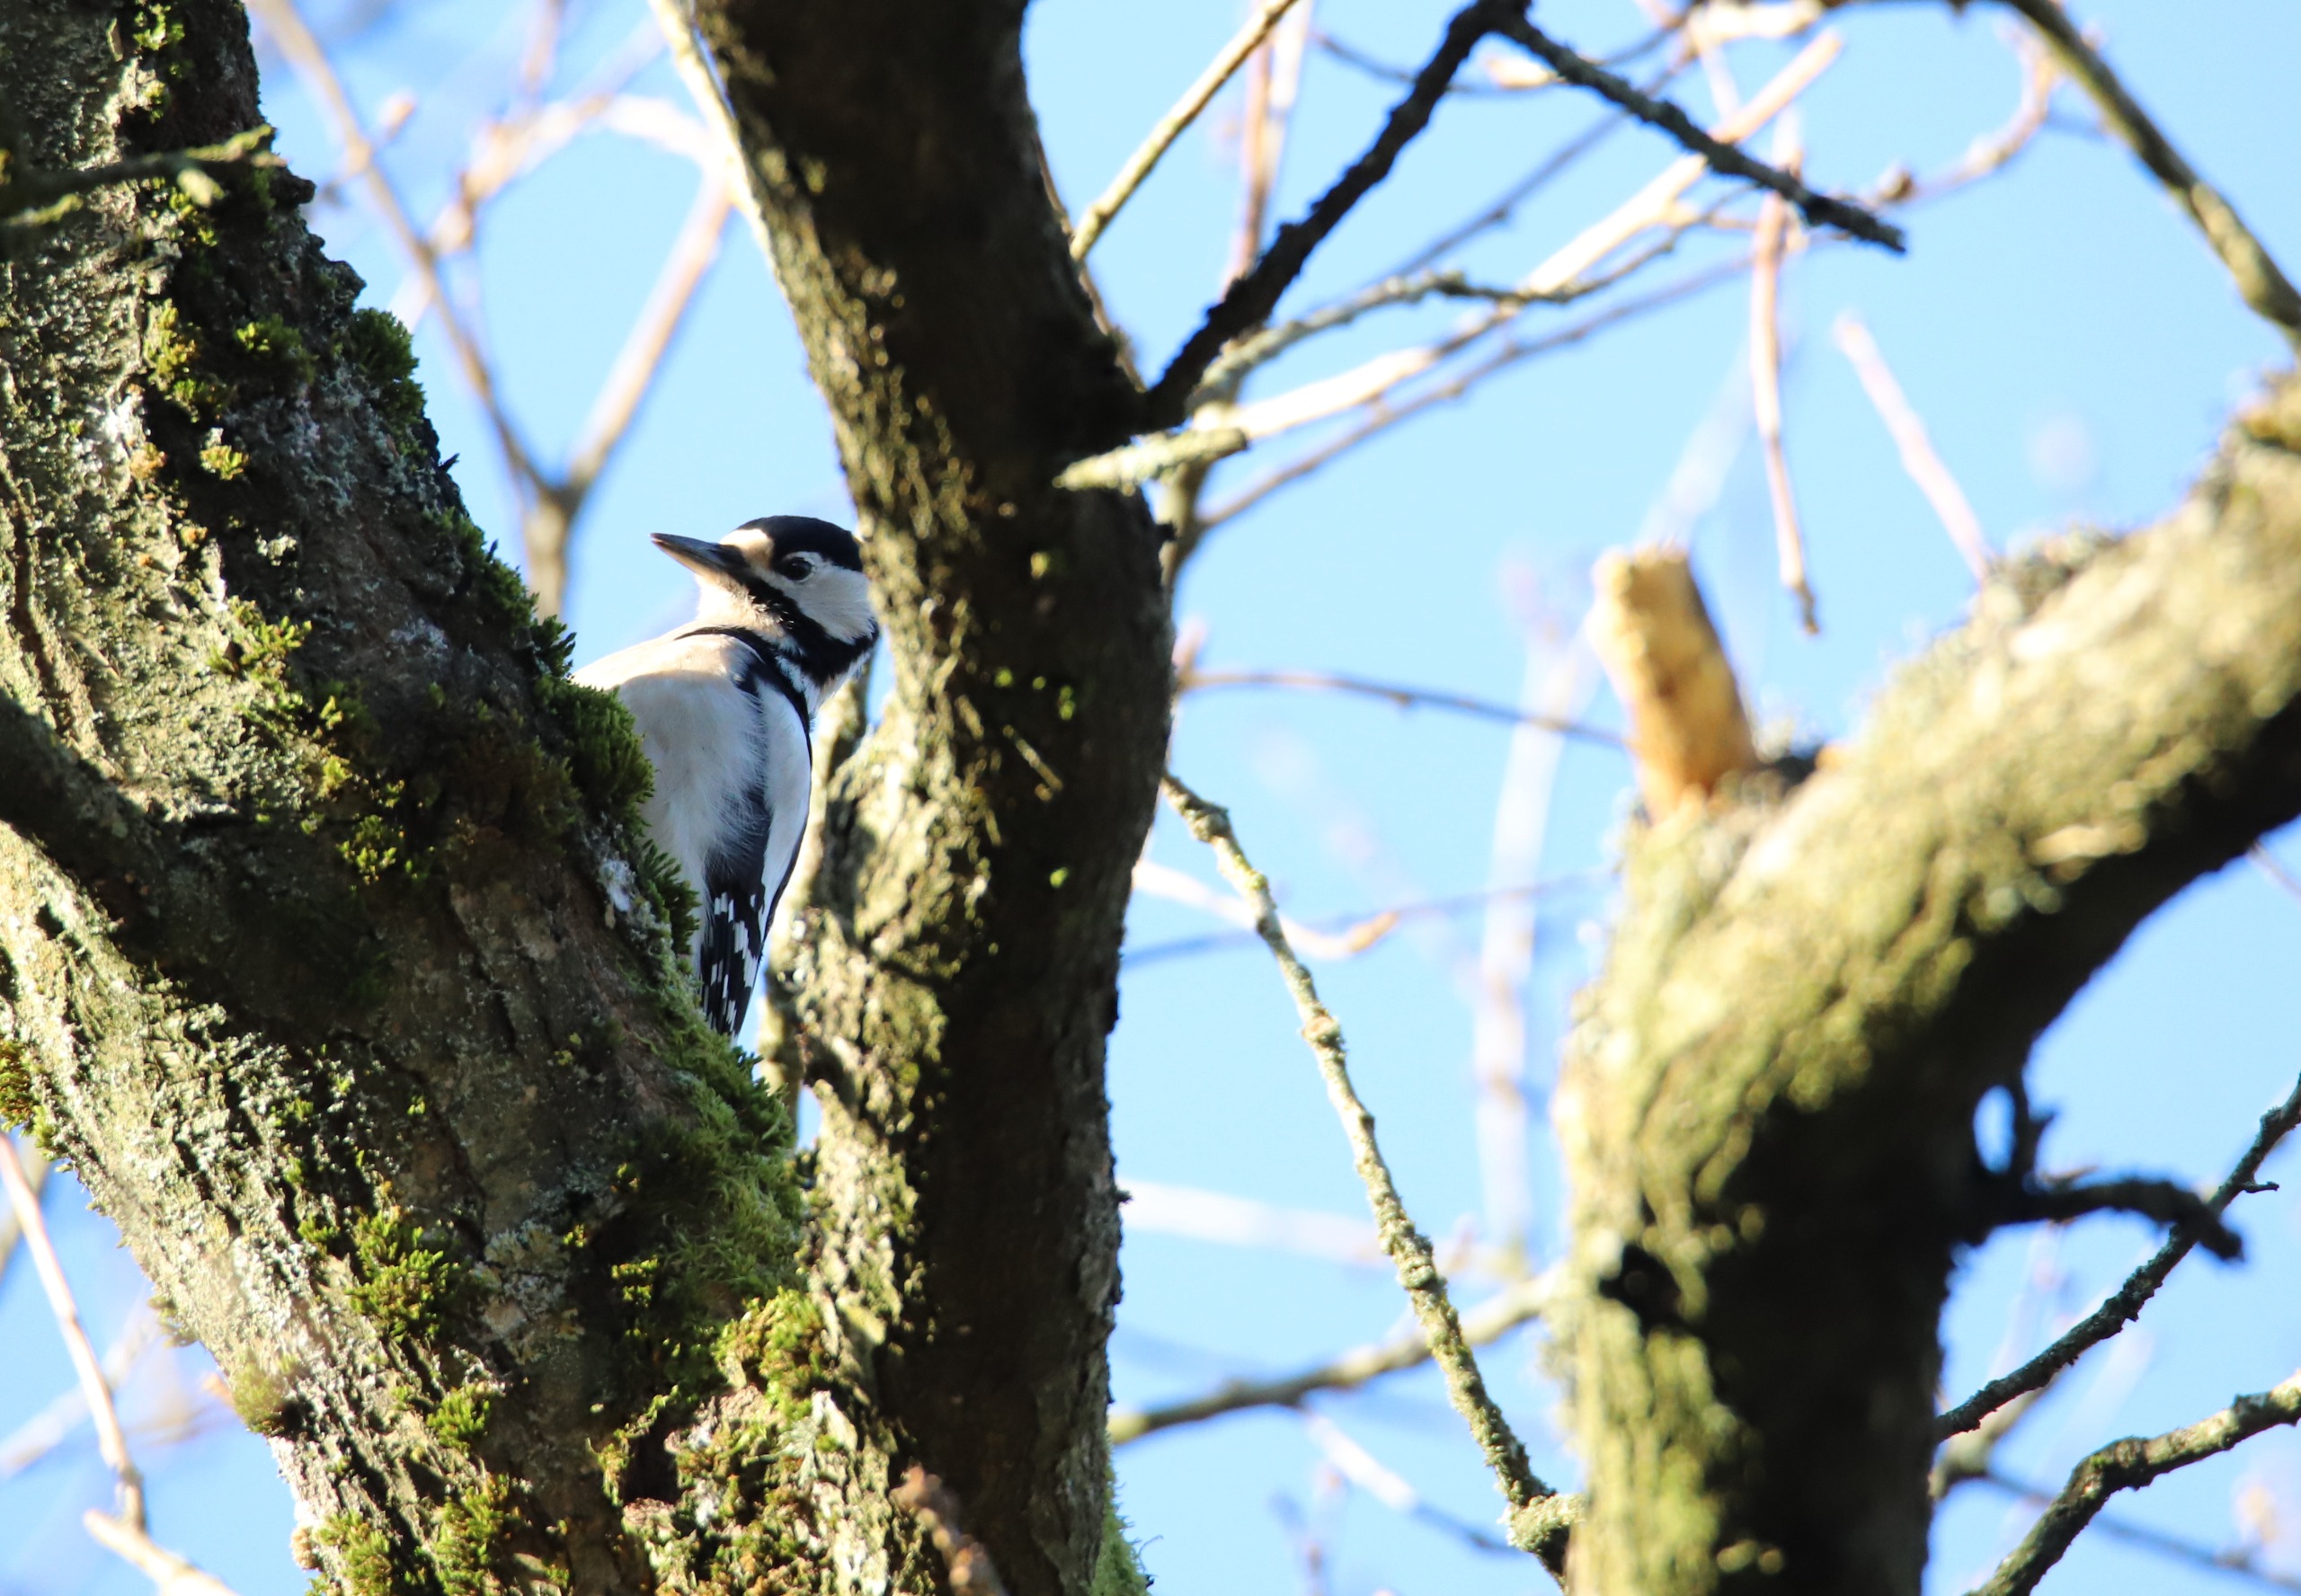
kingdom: Animalia
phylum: Chordata
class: Aves
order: Piciformes
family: Picidae
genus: Dendrocopos
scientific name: Dendrocopos major
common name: Stor flagspætte
